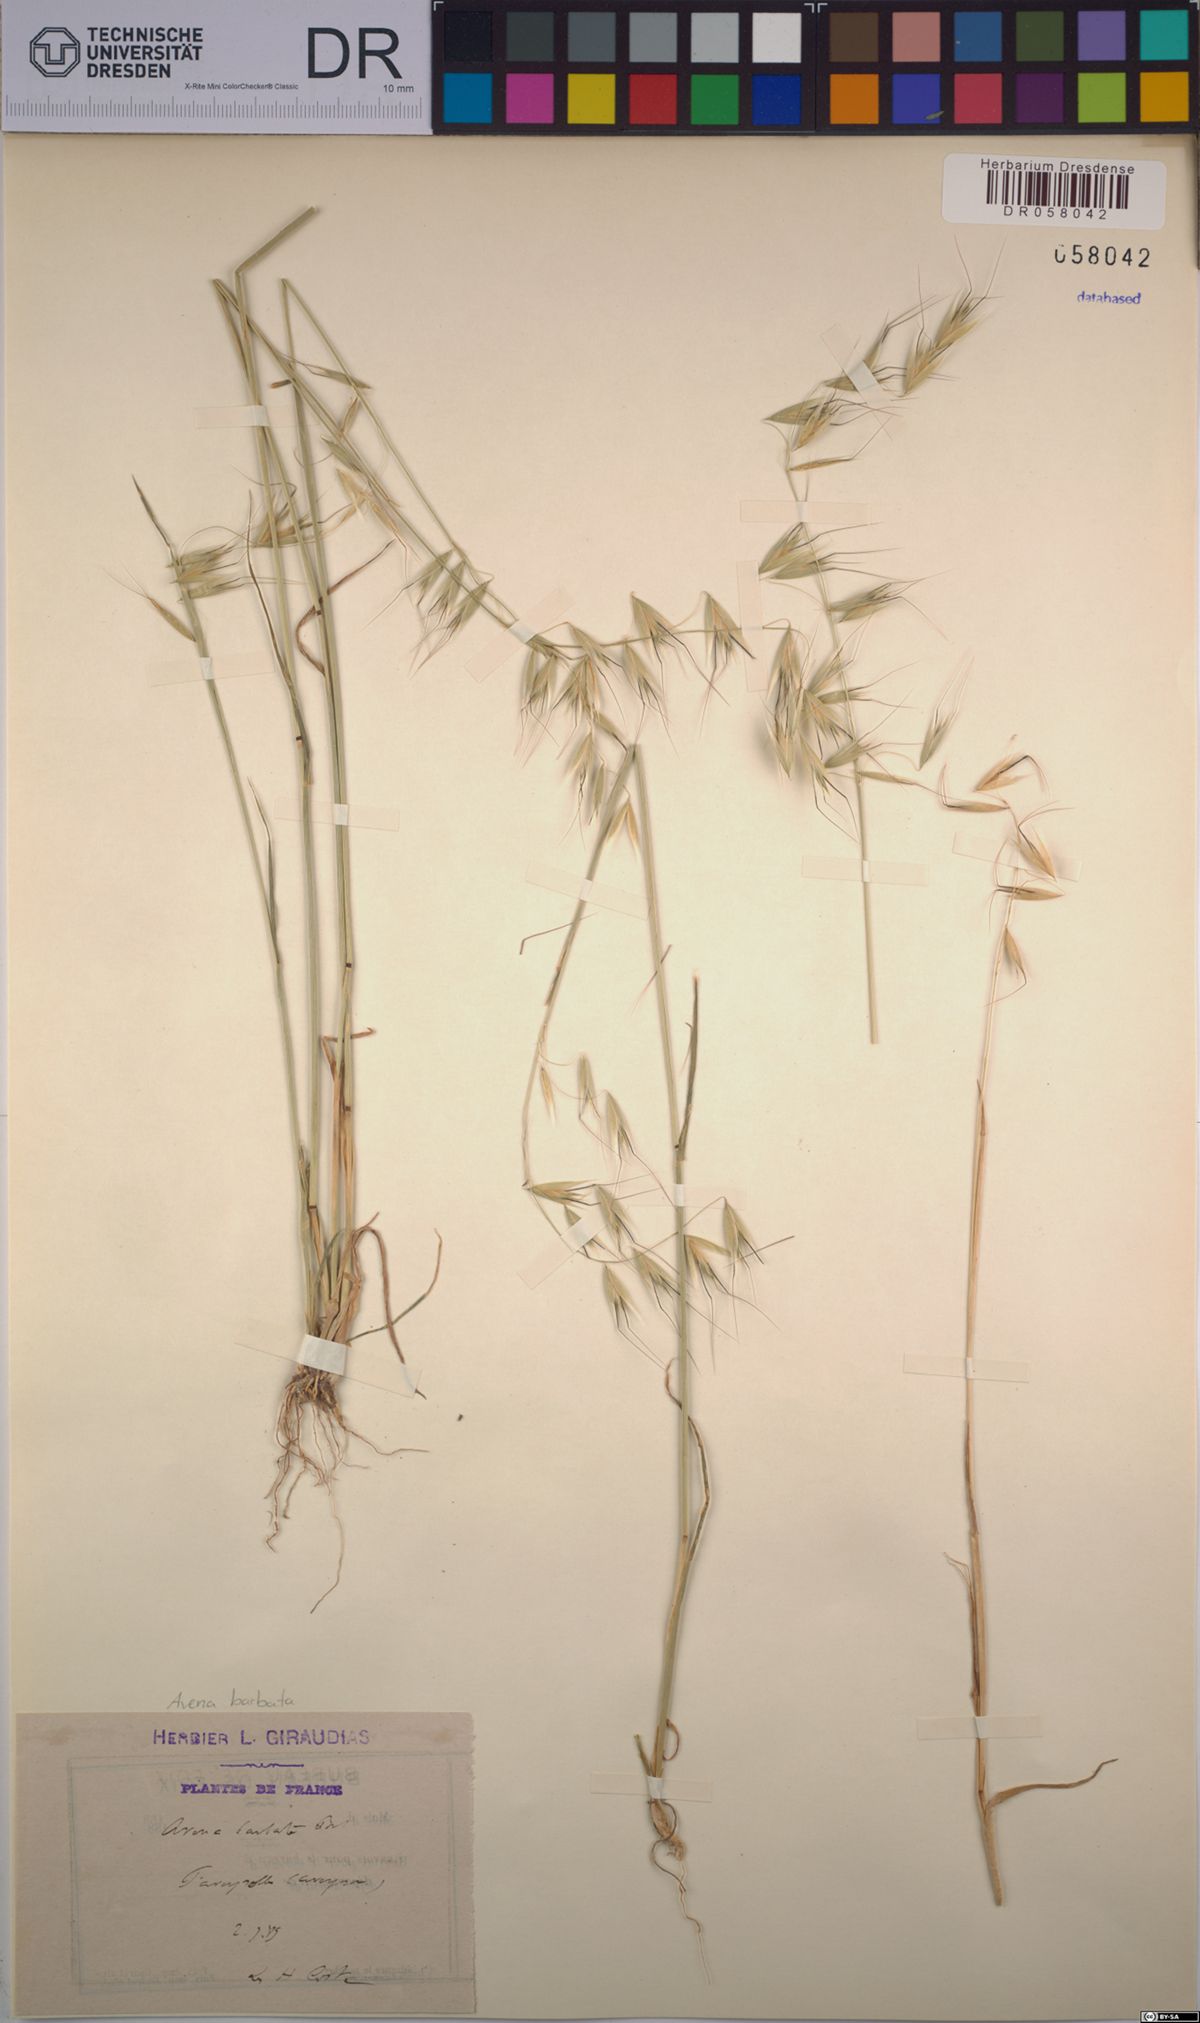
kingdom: Plantae
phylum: Tracheophyta
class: Liliopsida
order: Poales
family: Poaceae
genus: Avena
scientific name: Avena barbata
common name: Slender oat
